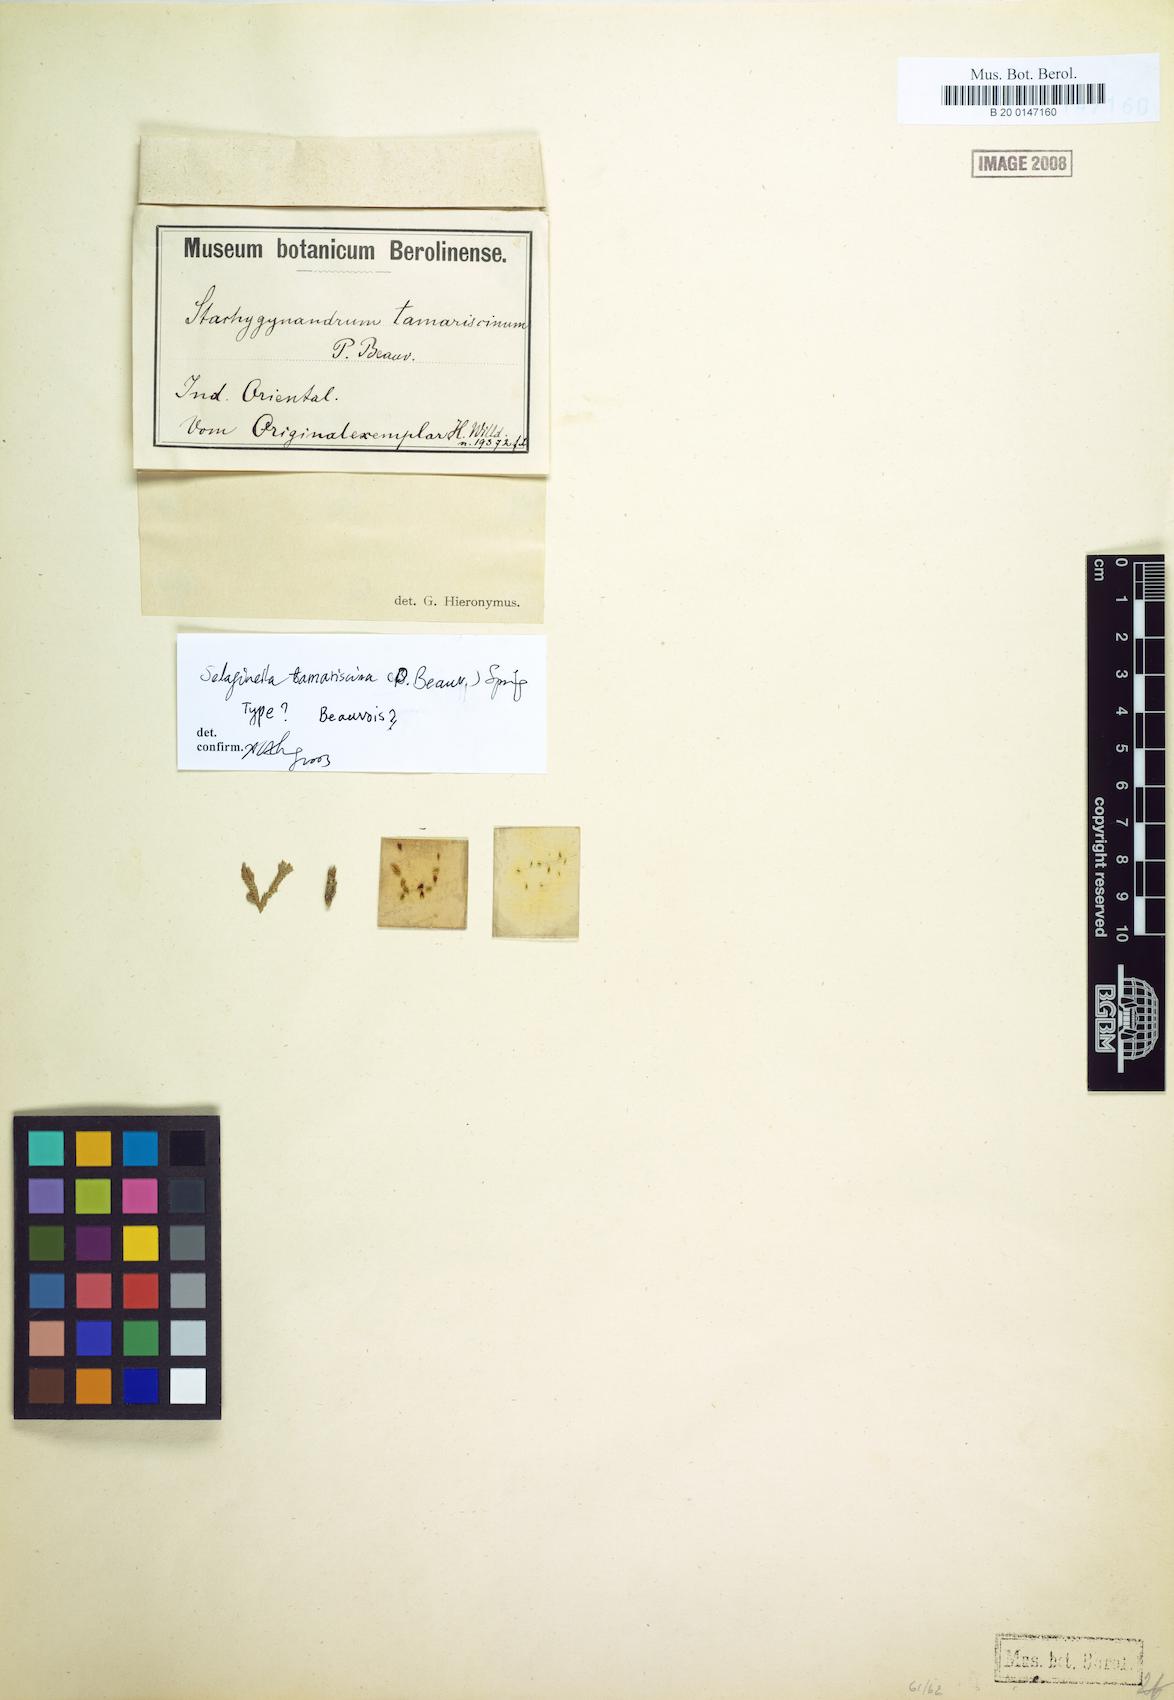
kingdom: Plantae
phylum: Tracheophyta
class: Lycopodiopsida
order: Selaginellales
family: Selaginellaceae
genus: Selaginella
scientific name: Selaginella tamariscina
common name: Little-club-moss
